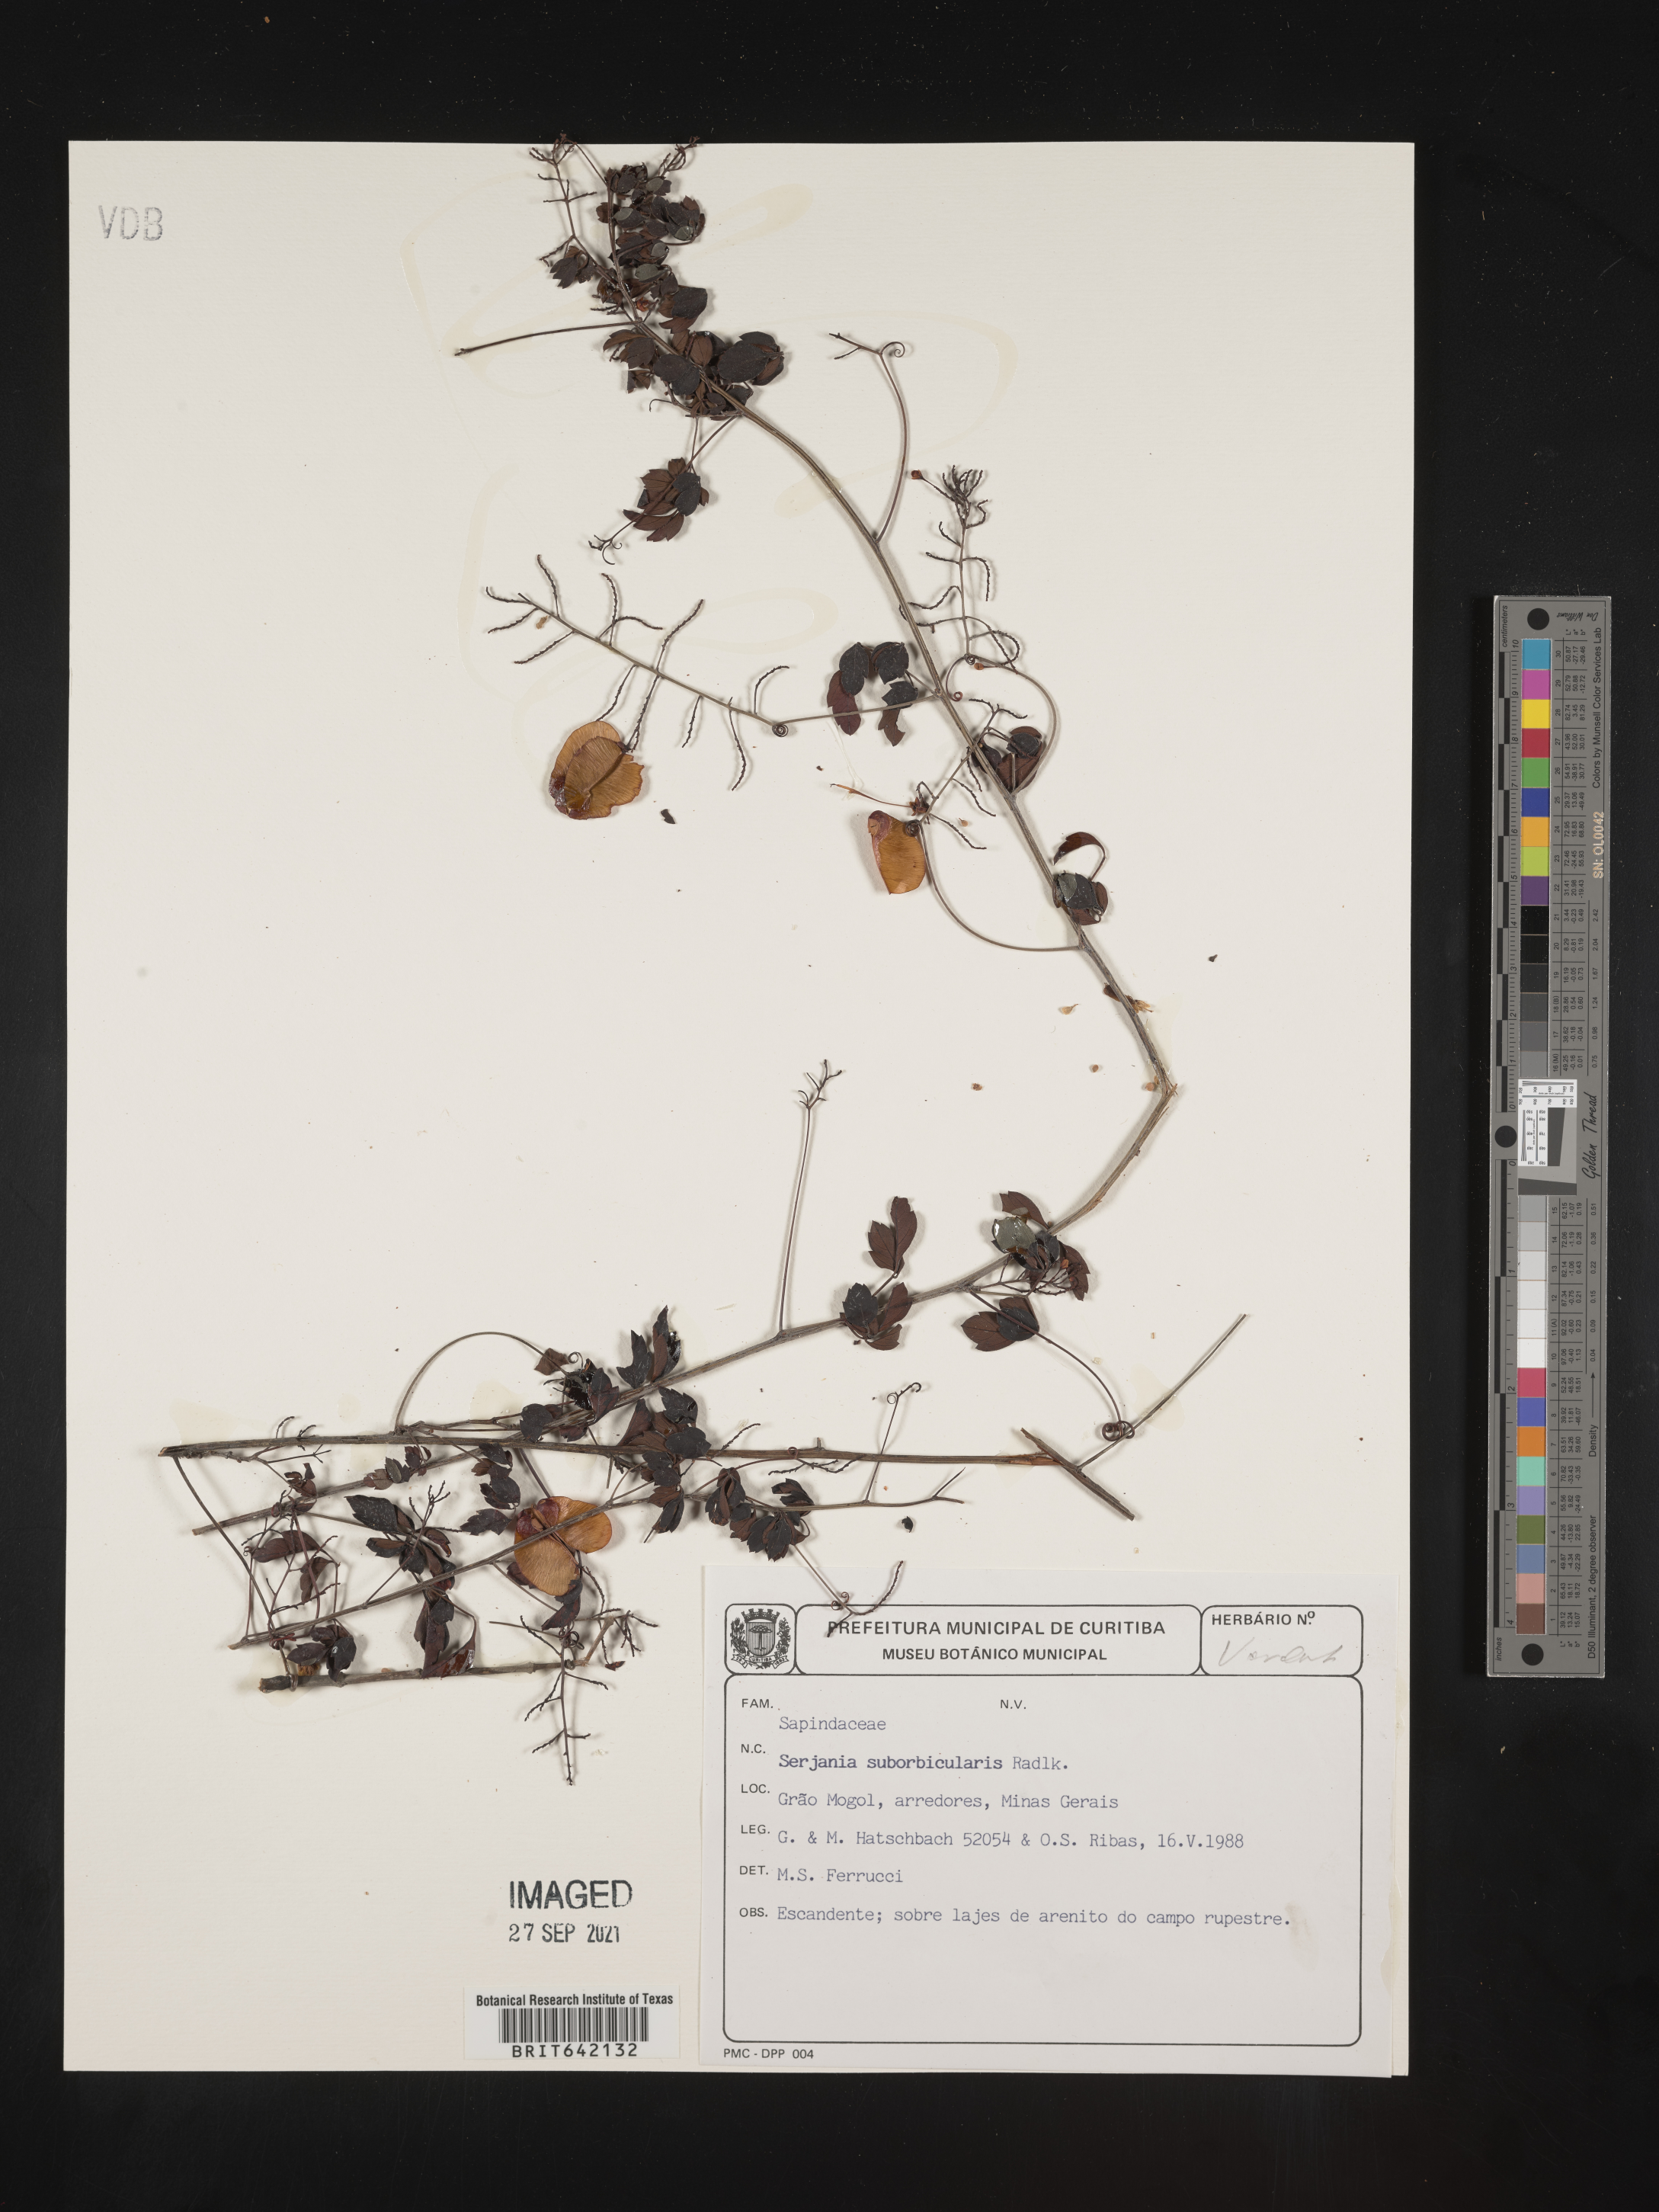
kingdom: Plantae
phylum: Tracheophyta
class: Magnoliopsida
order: Sapindales
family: Sapindaceae
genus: Serjania
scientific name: Serjania
